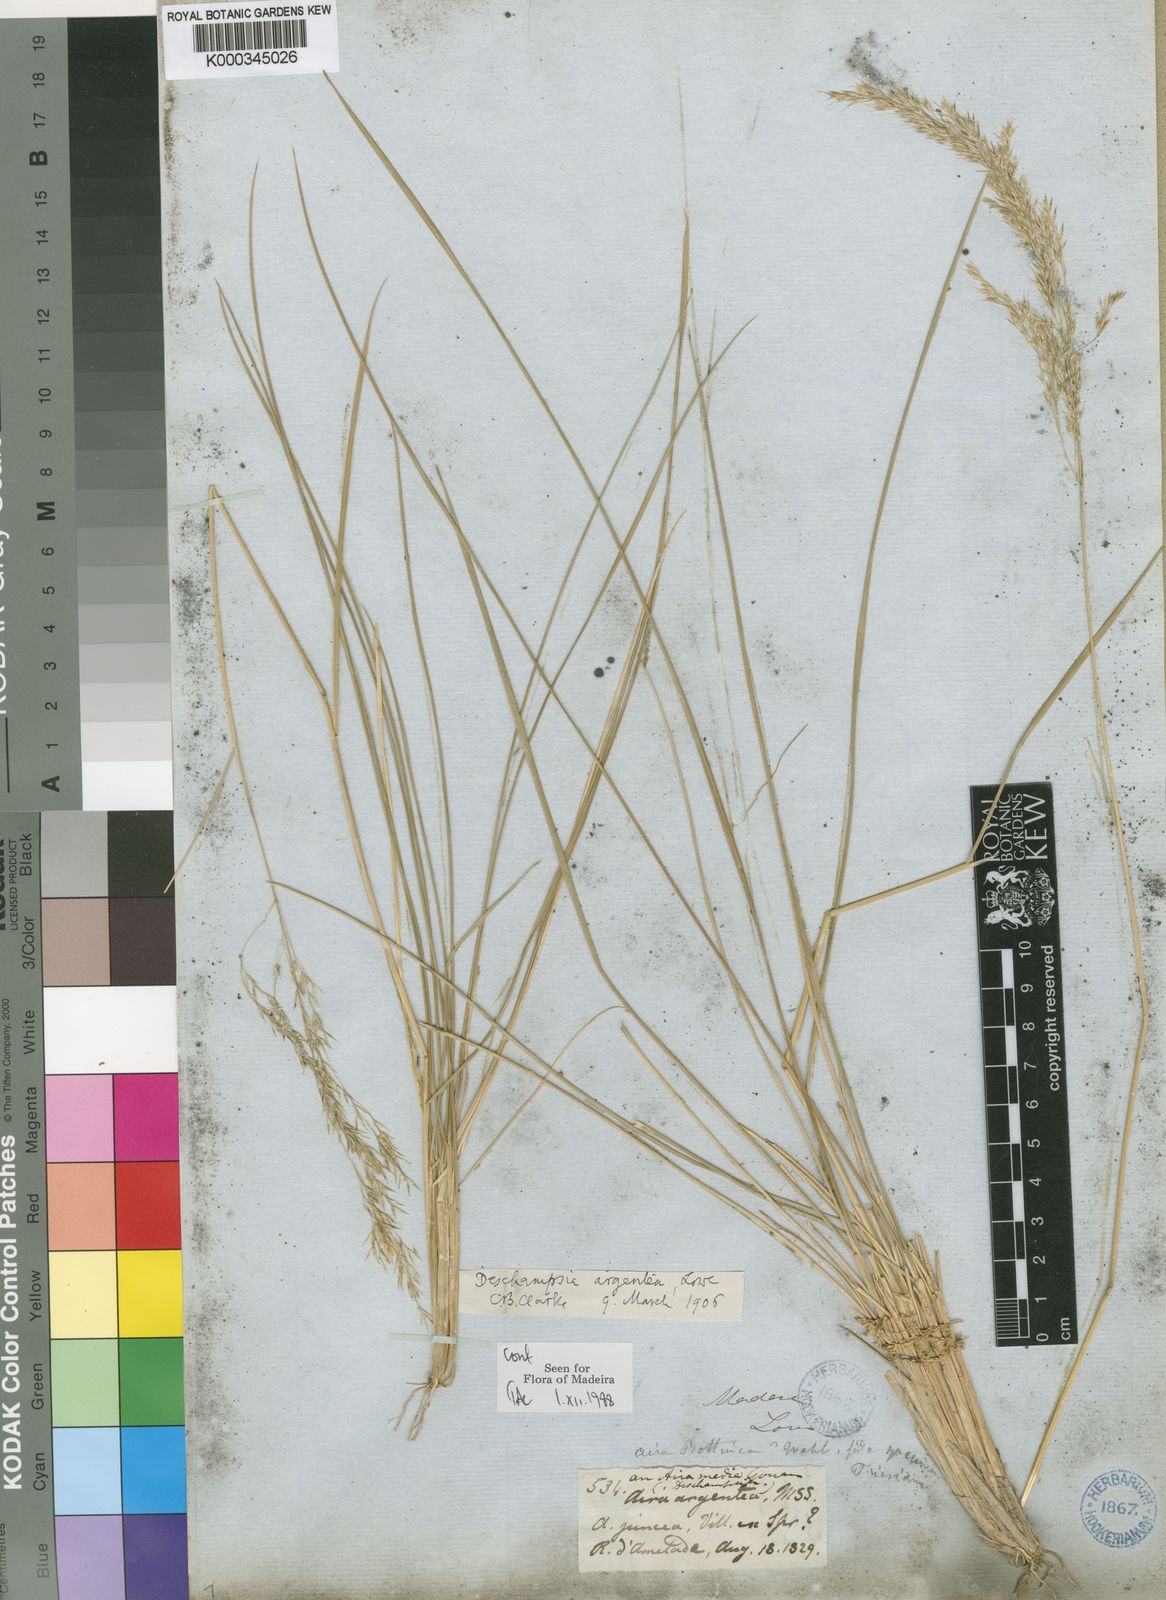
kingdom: Plantae
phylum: Tracheophyta
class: Liliopsida
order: Poales
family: Poaceae
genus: Deschampsia
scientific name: Deschampsia argentea
